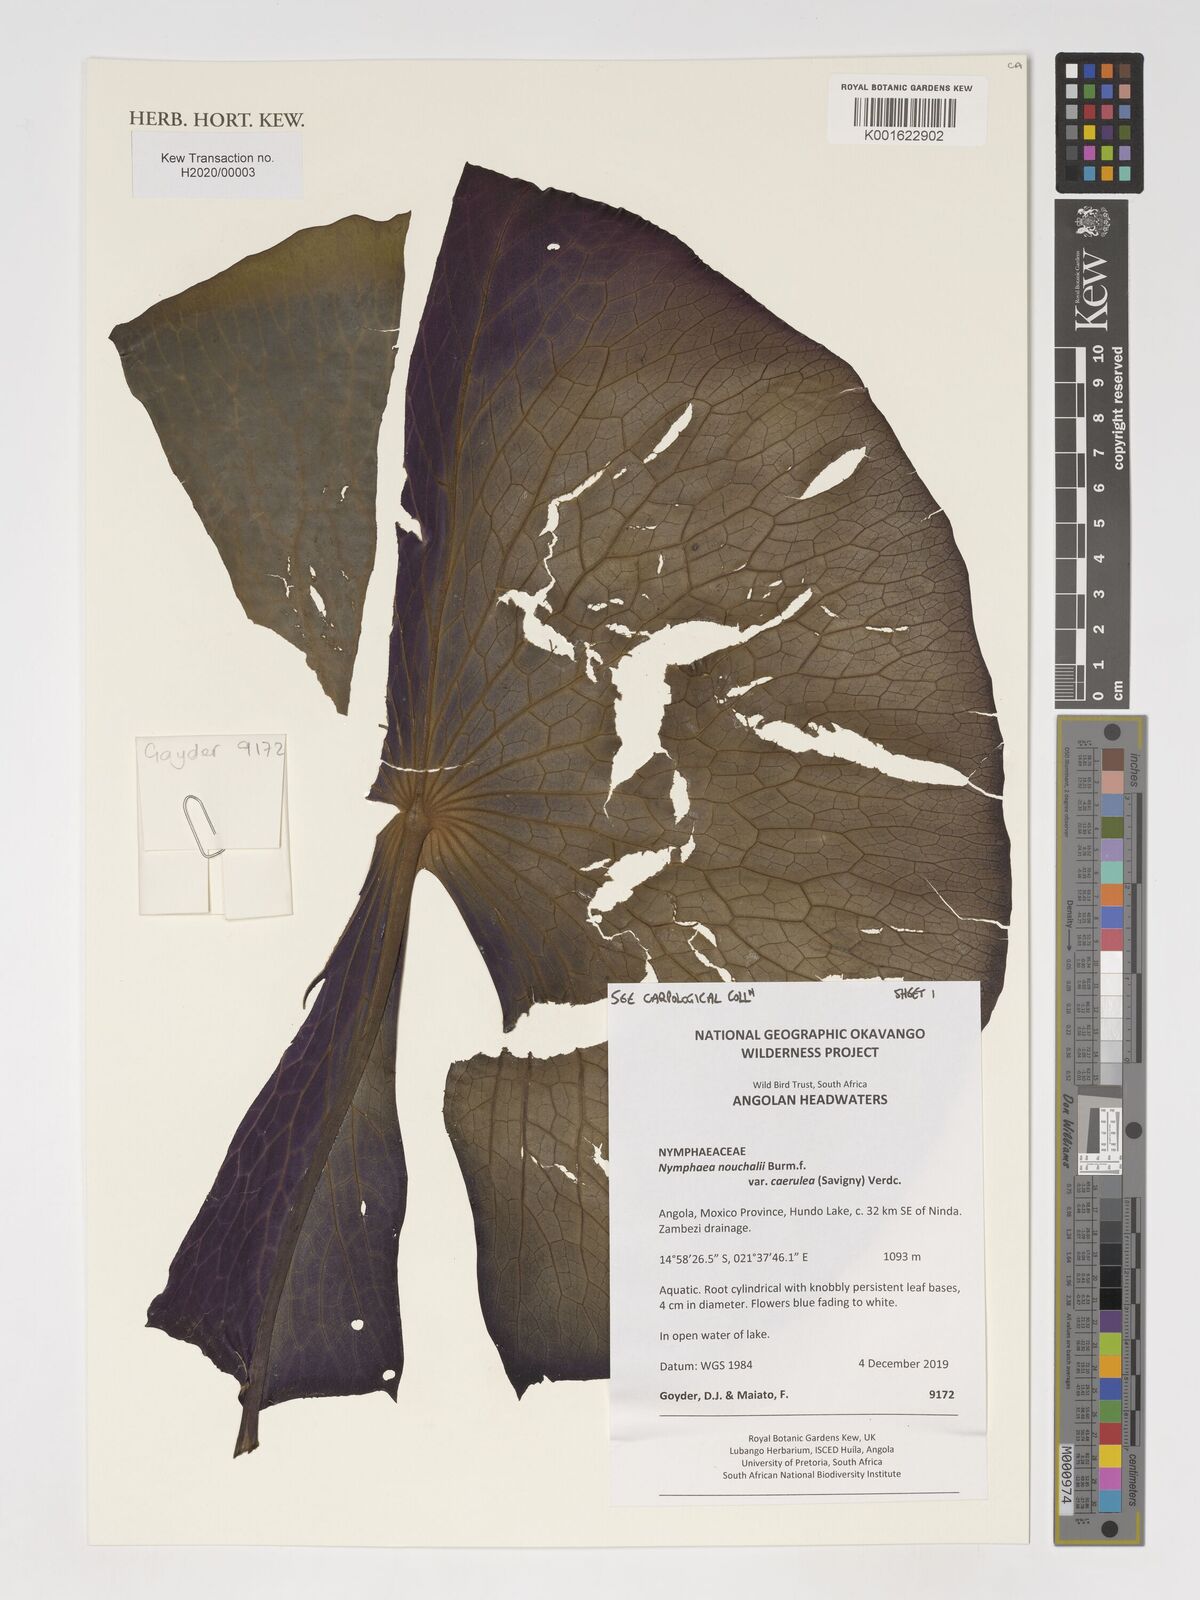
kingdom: Plantae
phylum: Tracheophyta
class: Magnoliopsida
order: Nymphaeales
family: Nymphaeaceae
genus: Nymphaea
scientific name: Nymphaea nouchali
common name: Blue lotus
